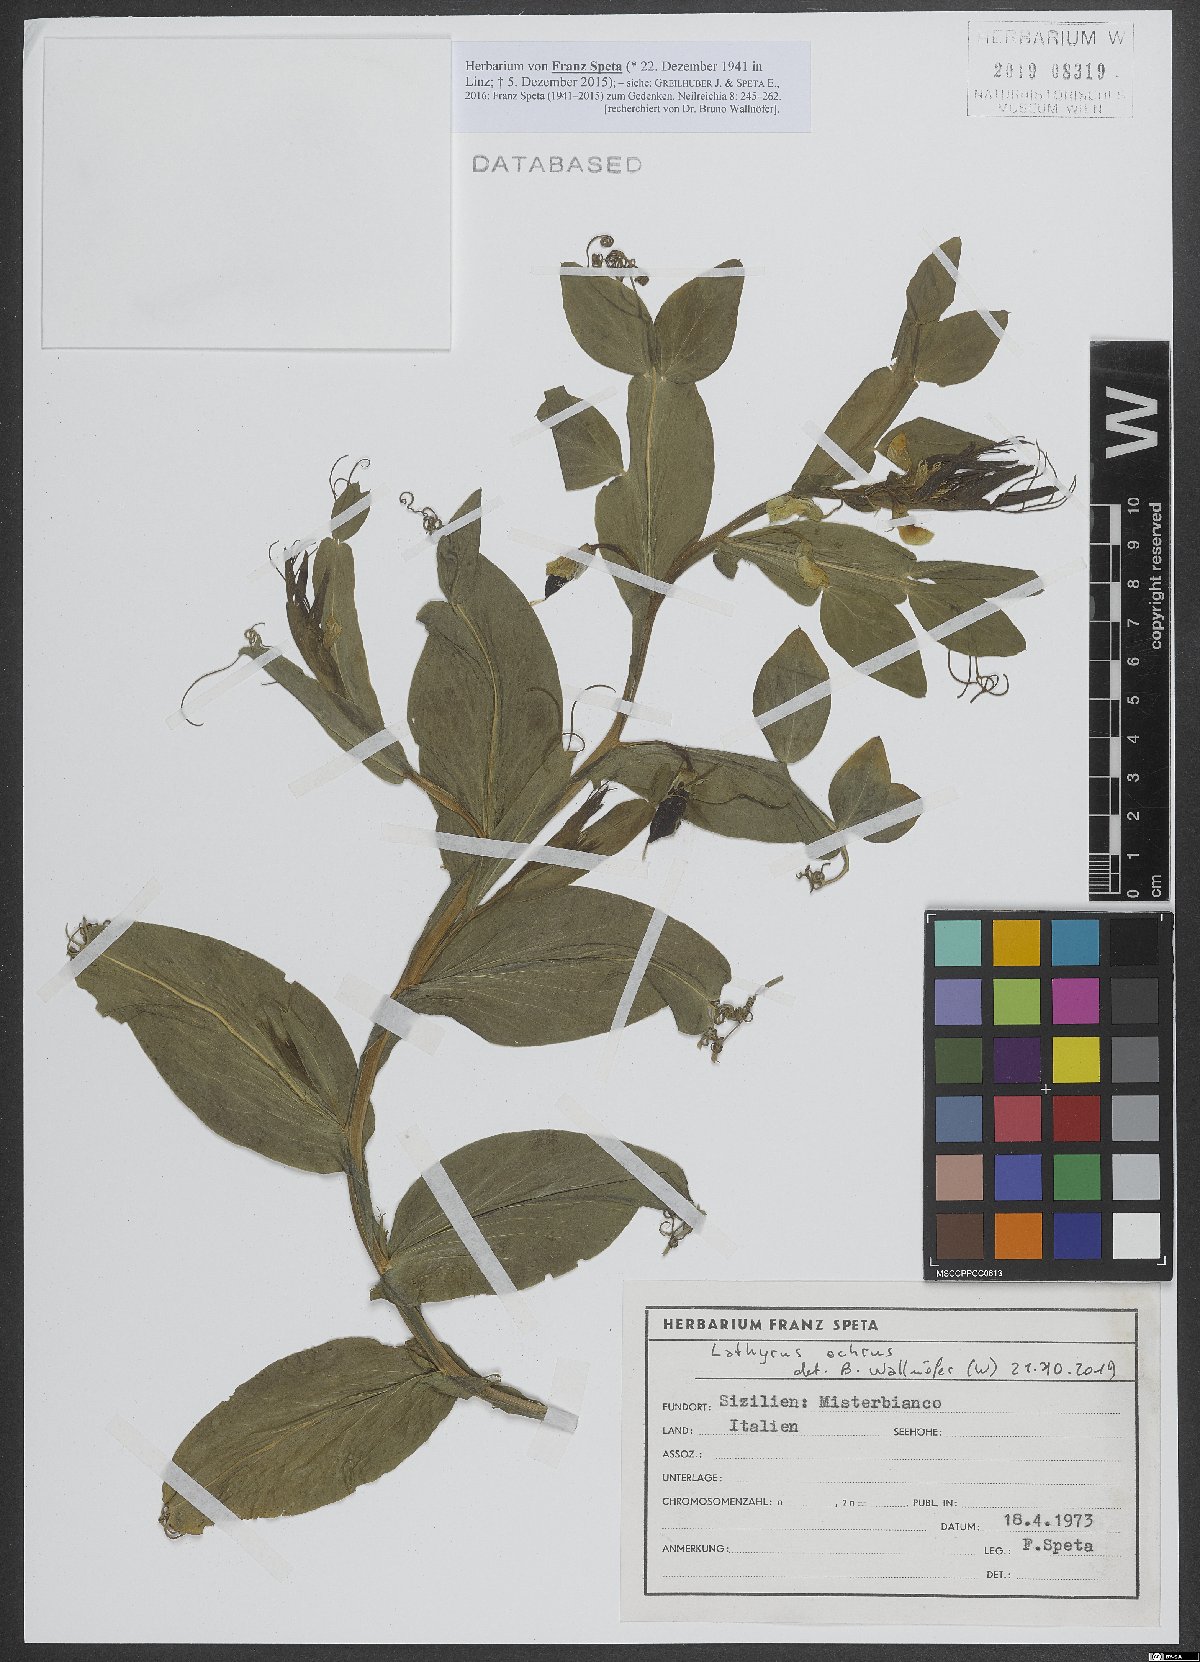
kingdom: Plantae
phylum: Tracheophyta
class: Magnoliopsida
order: Fabales
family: Fabaceae
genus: Lathyrus
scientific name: Lathyrus ochrus
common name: Winged vetchling
